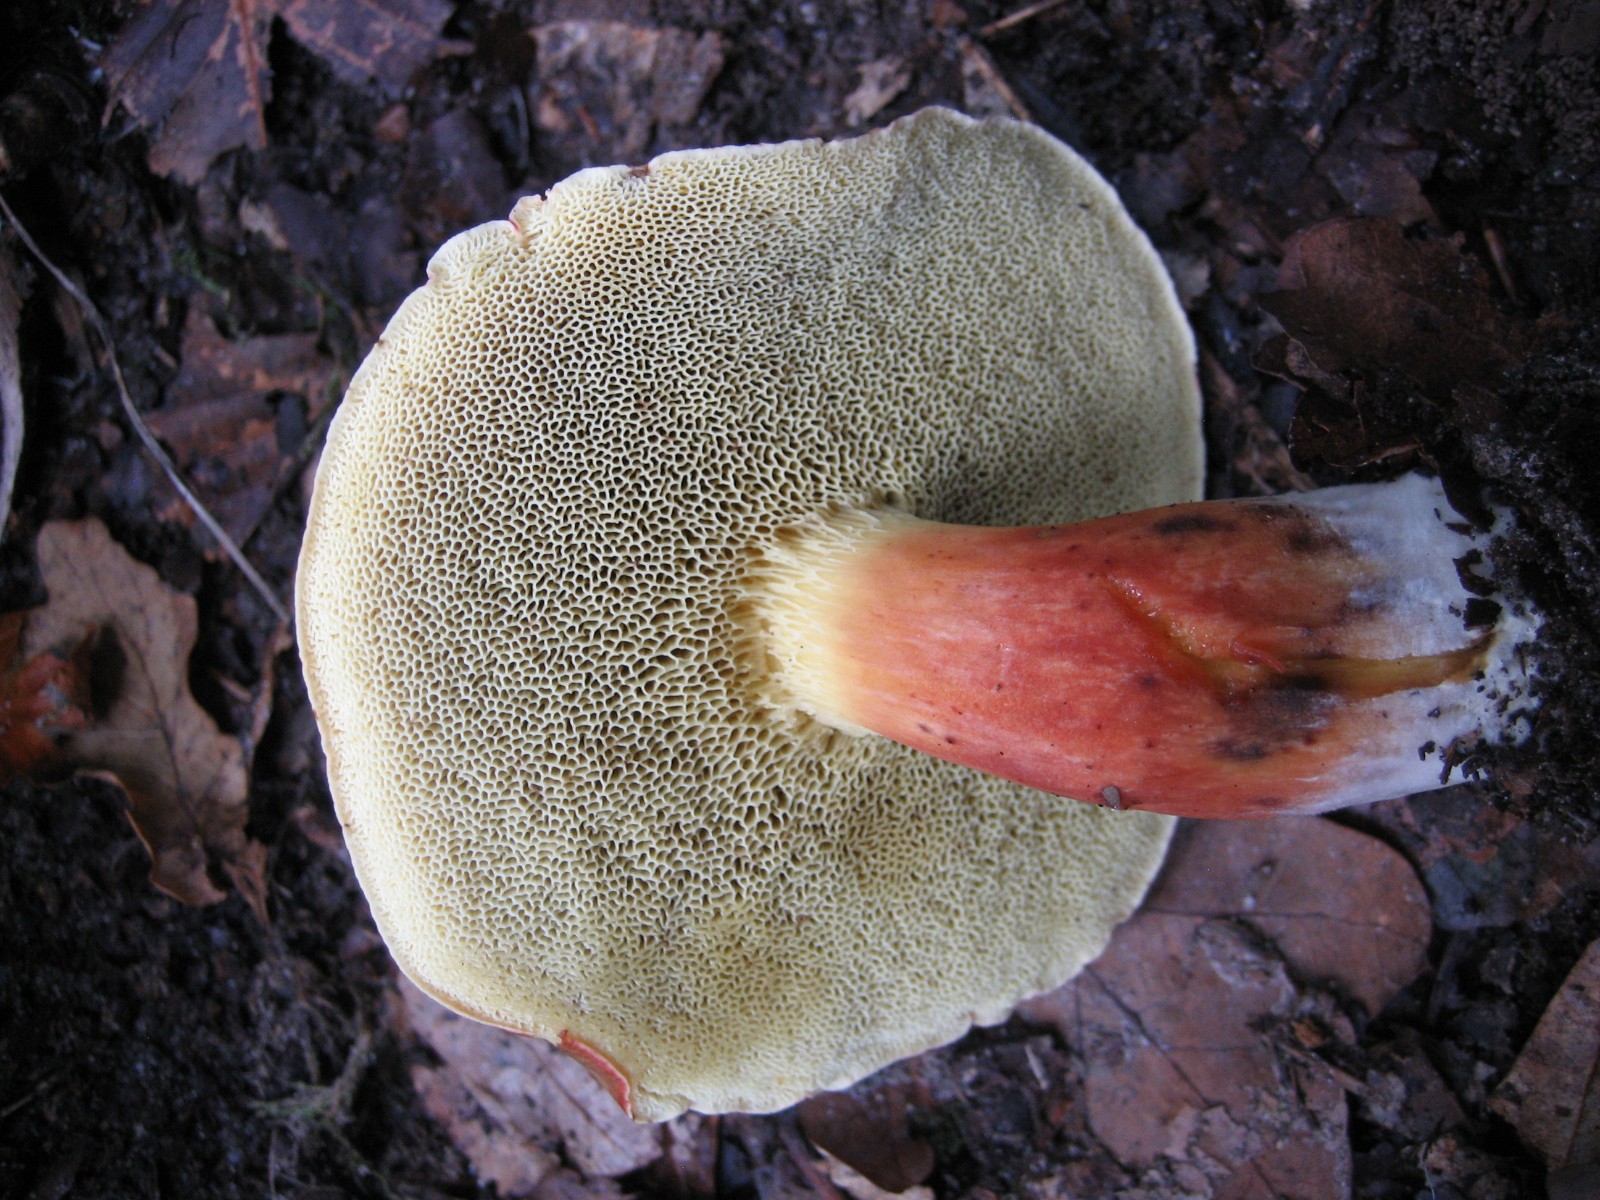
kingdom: Fungi
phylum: Basidiomycota
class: Agaricomycetes
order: Boletales
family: Boletaceae
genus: Xerocomellus
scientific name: Xerocomellus chrysenteron
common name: rødsprukken rørhat
